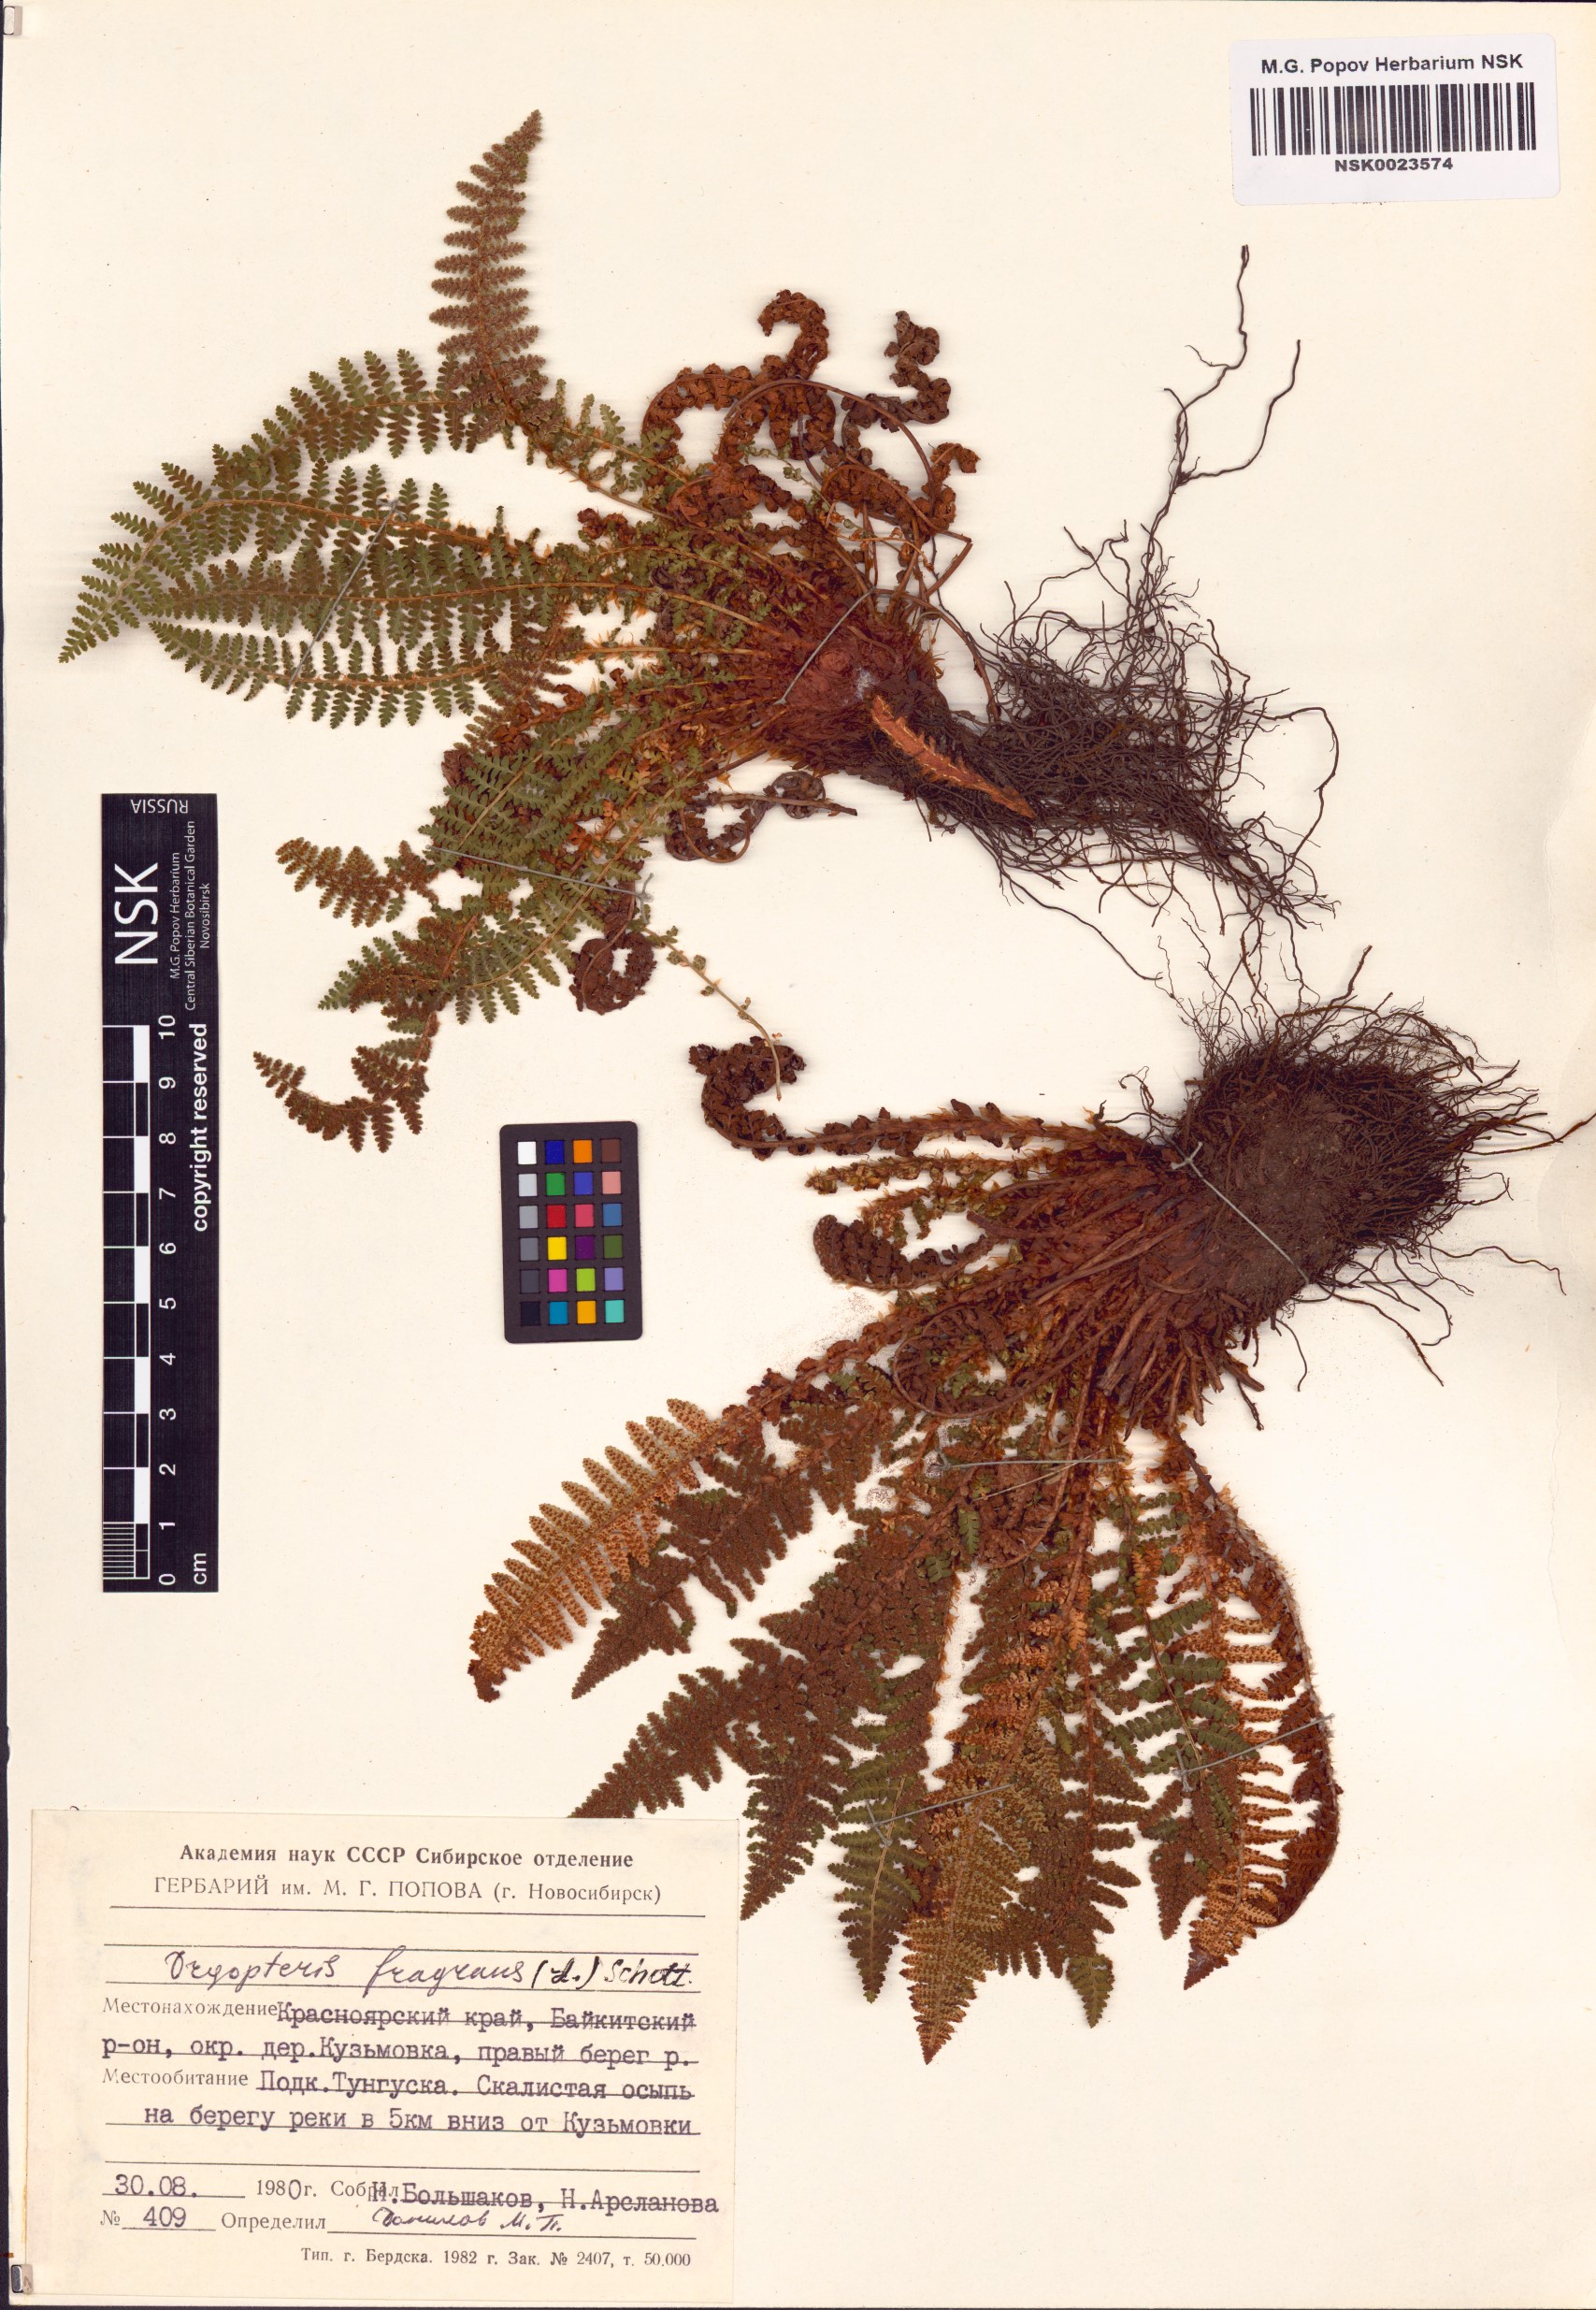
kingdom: Plantae
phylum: Tracheophyta
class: Polypodiopsida
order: Polypodiales
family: Dryopteridaceae
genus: Dryopteris
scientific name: Dryopteris fragrans
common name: Fragrant wood fern
